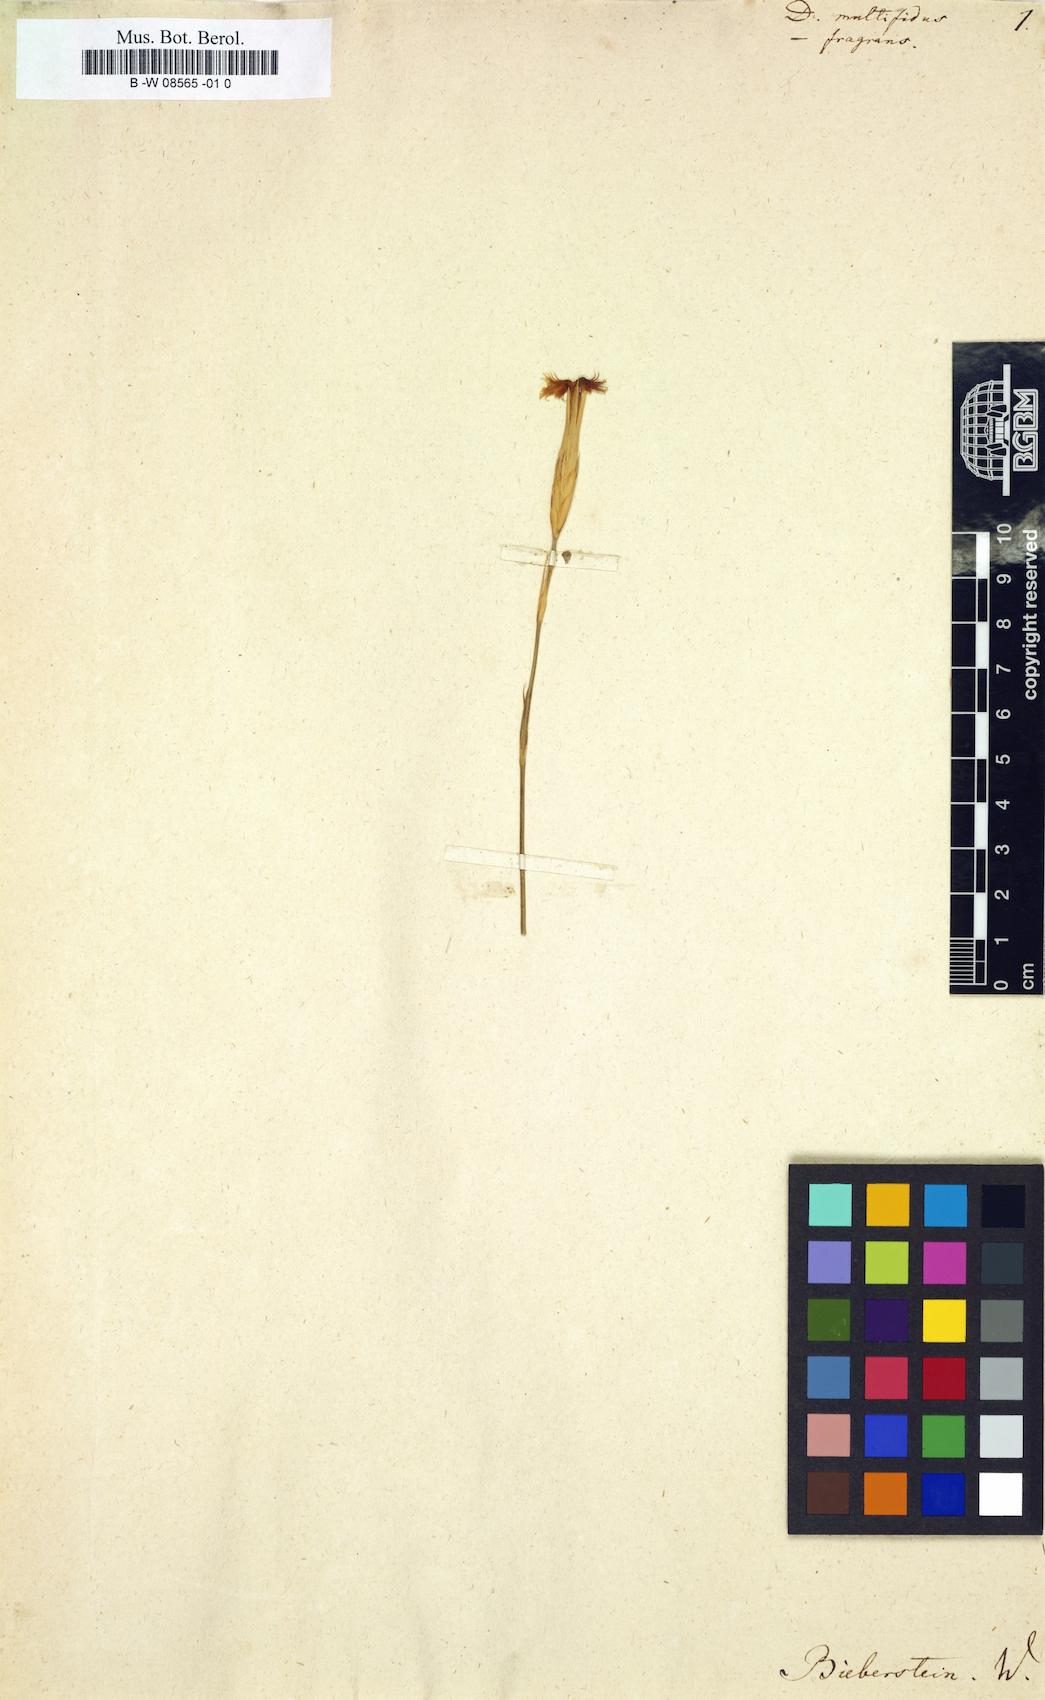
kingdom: Plantae
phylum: Tracheophyta
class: Magnoliopsida
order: Caryophyllales
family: Caryophyllaceae
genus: Dianthus
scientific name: Dianthus
